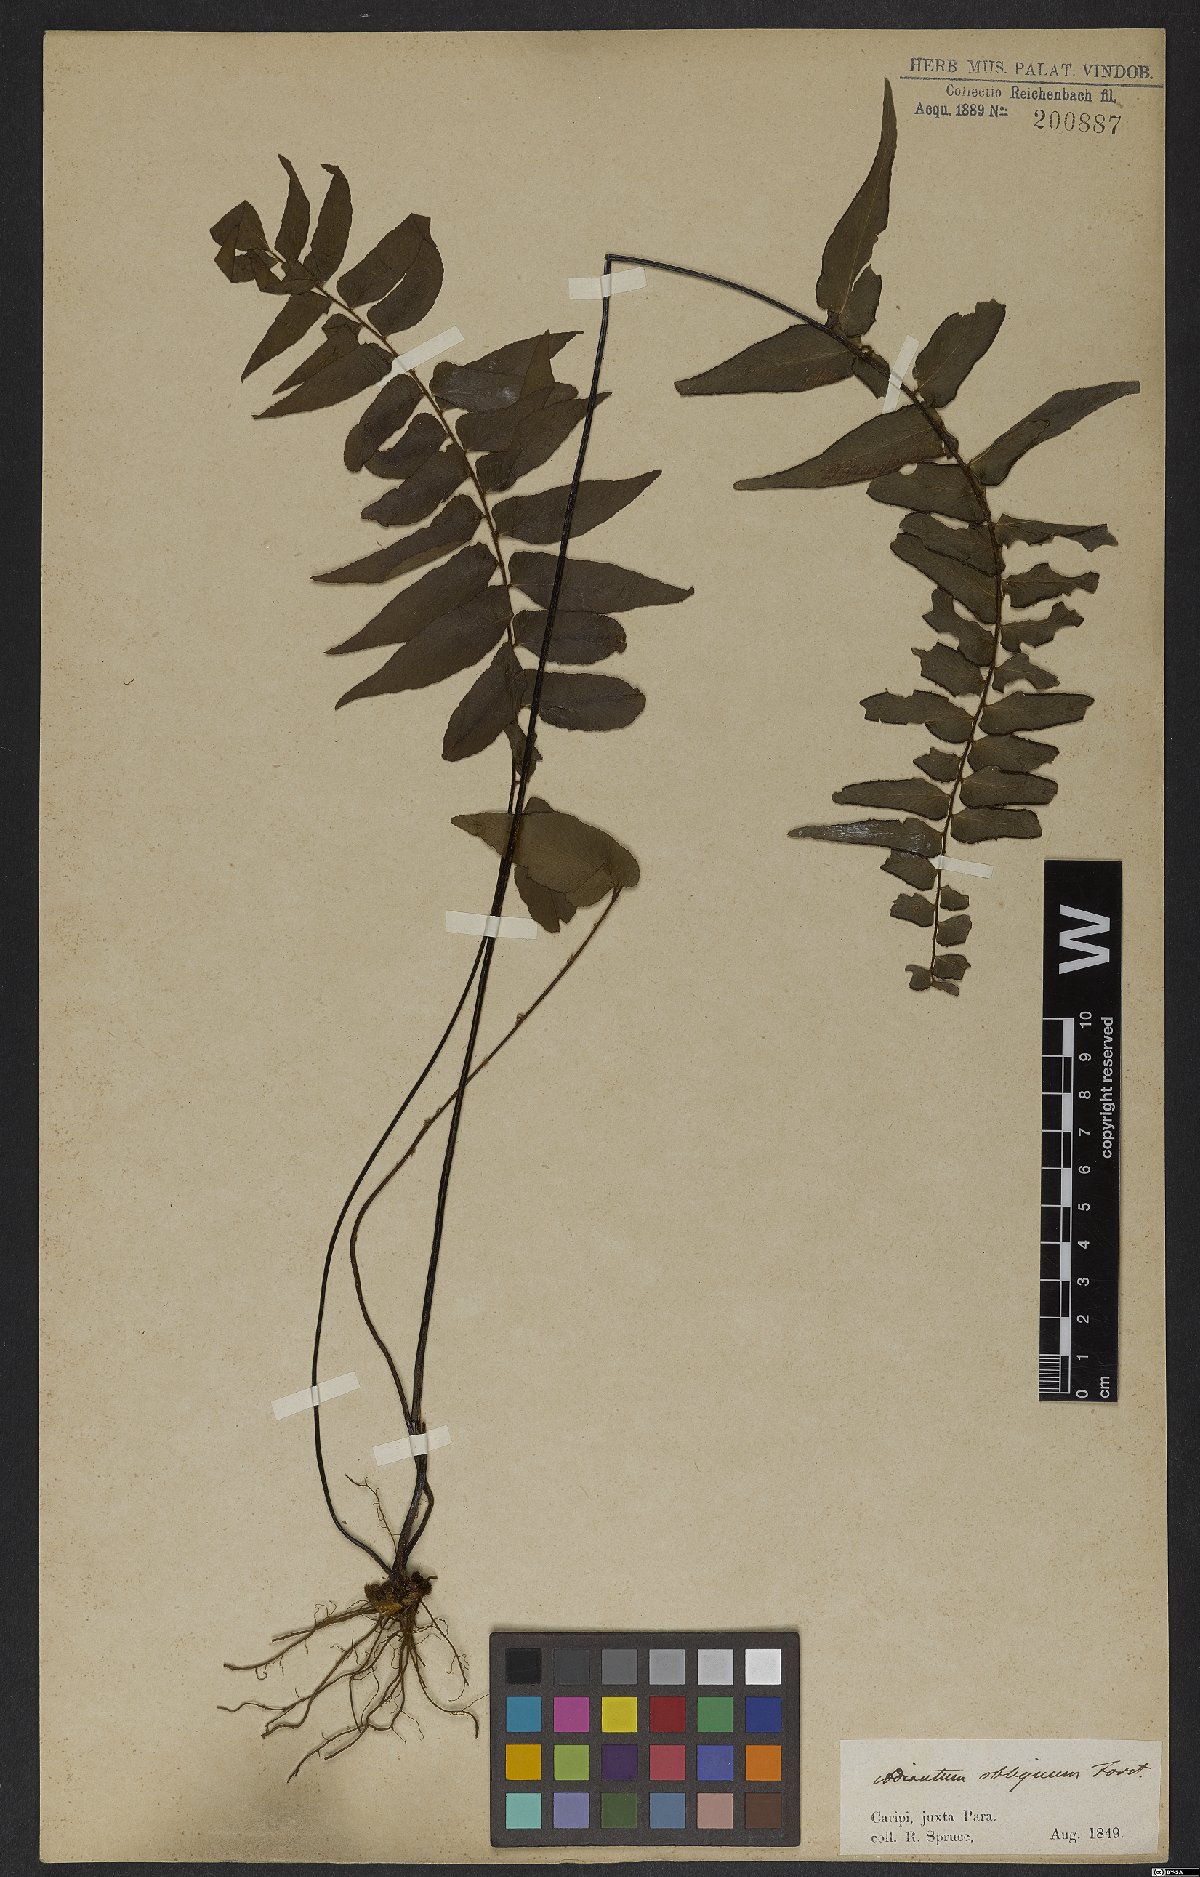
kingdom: Plantae
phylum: Tracheophyta
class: Polypodiopsida
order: Polypodiales
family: Pteridaceae
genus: Adiantum
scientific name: Adiantum obliquum
